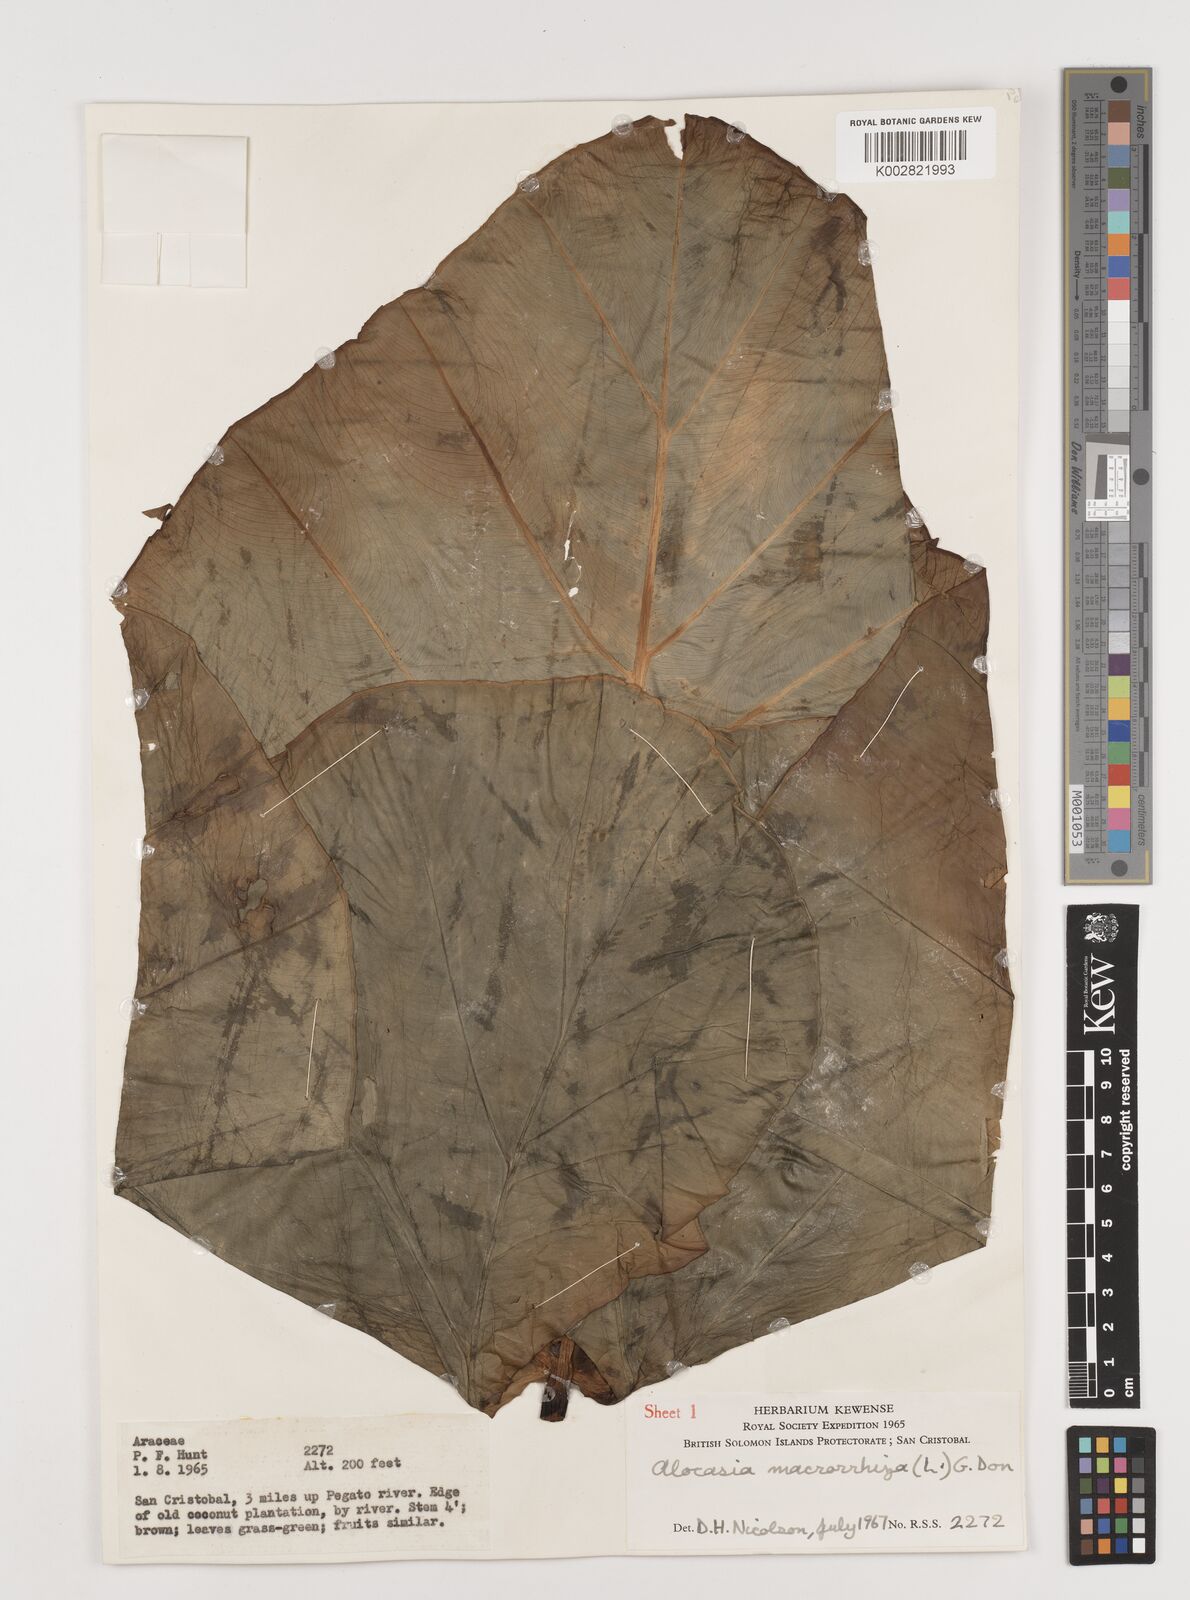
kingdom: Plantae
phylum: Tracheophyta
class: Liliopsida
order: Alismatales
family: Araceae
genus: Alocasia
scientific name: Alocasia macrorrhizos
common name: Giant taro
